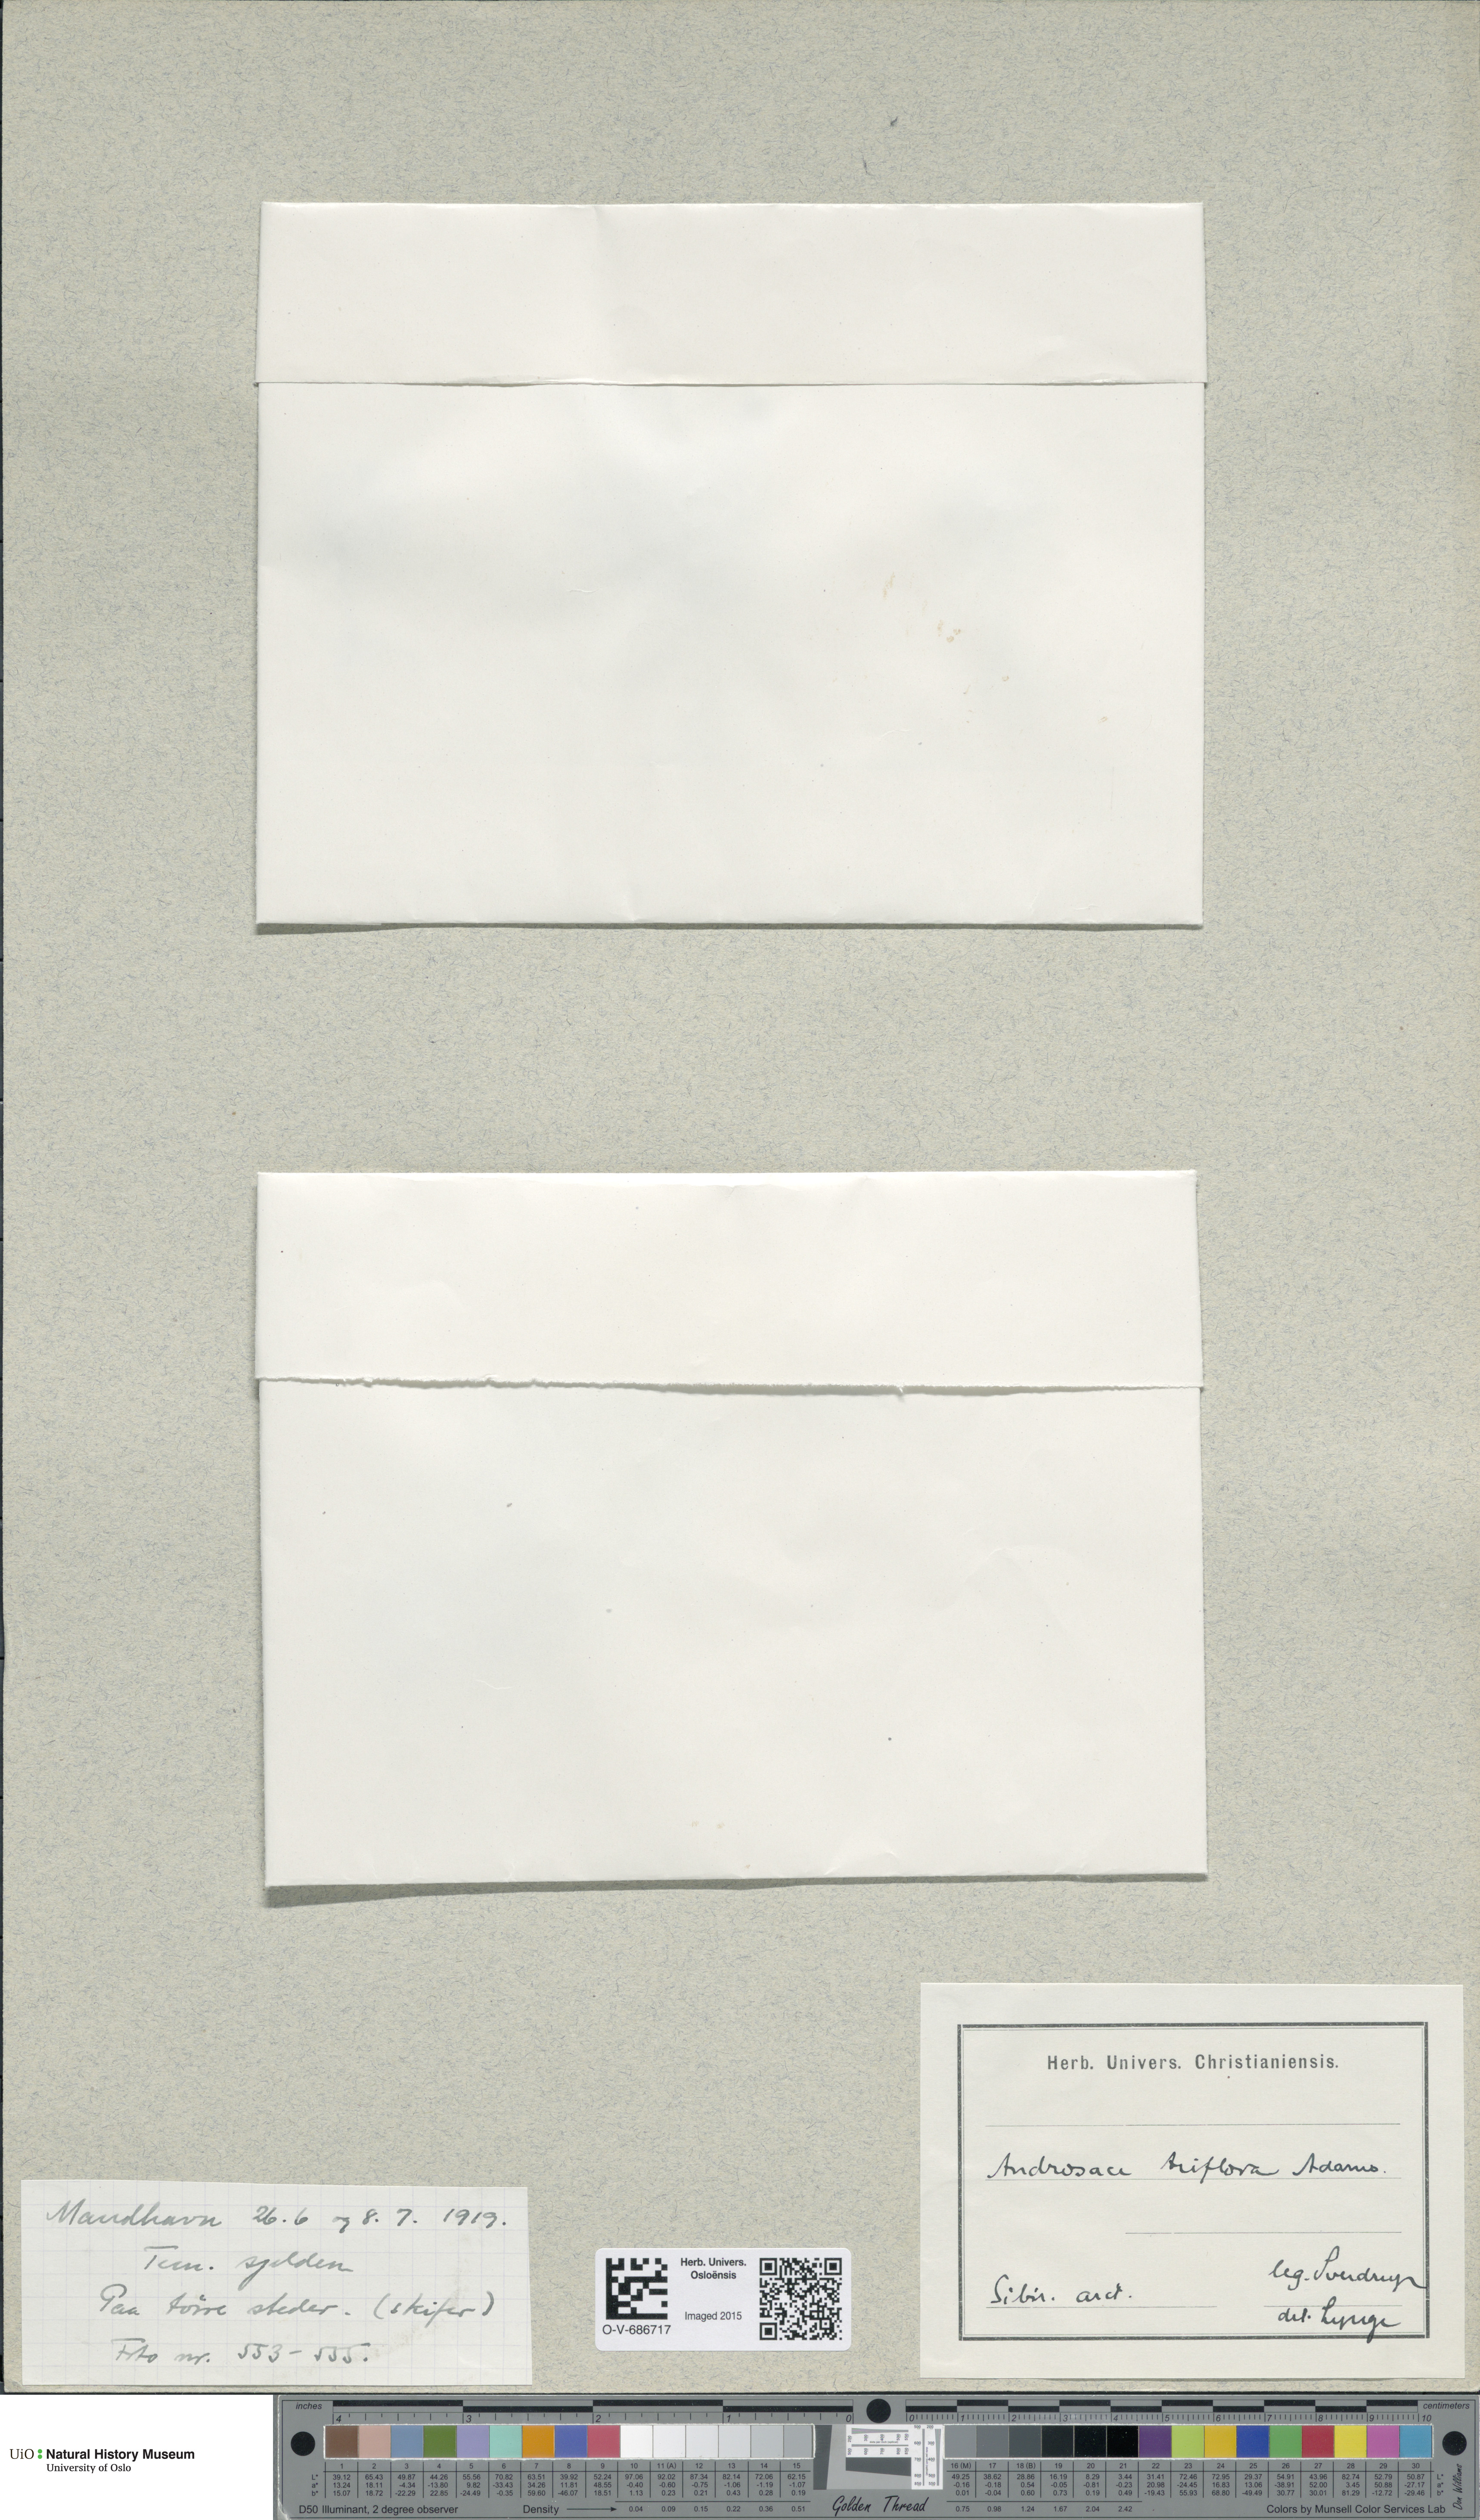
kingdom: Plantae
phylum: Tracheophyta
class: Magnoliopsida
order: Ericales
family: Primulaceae
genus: Androsace
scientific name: Androsace triflora
